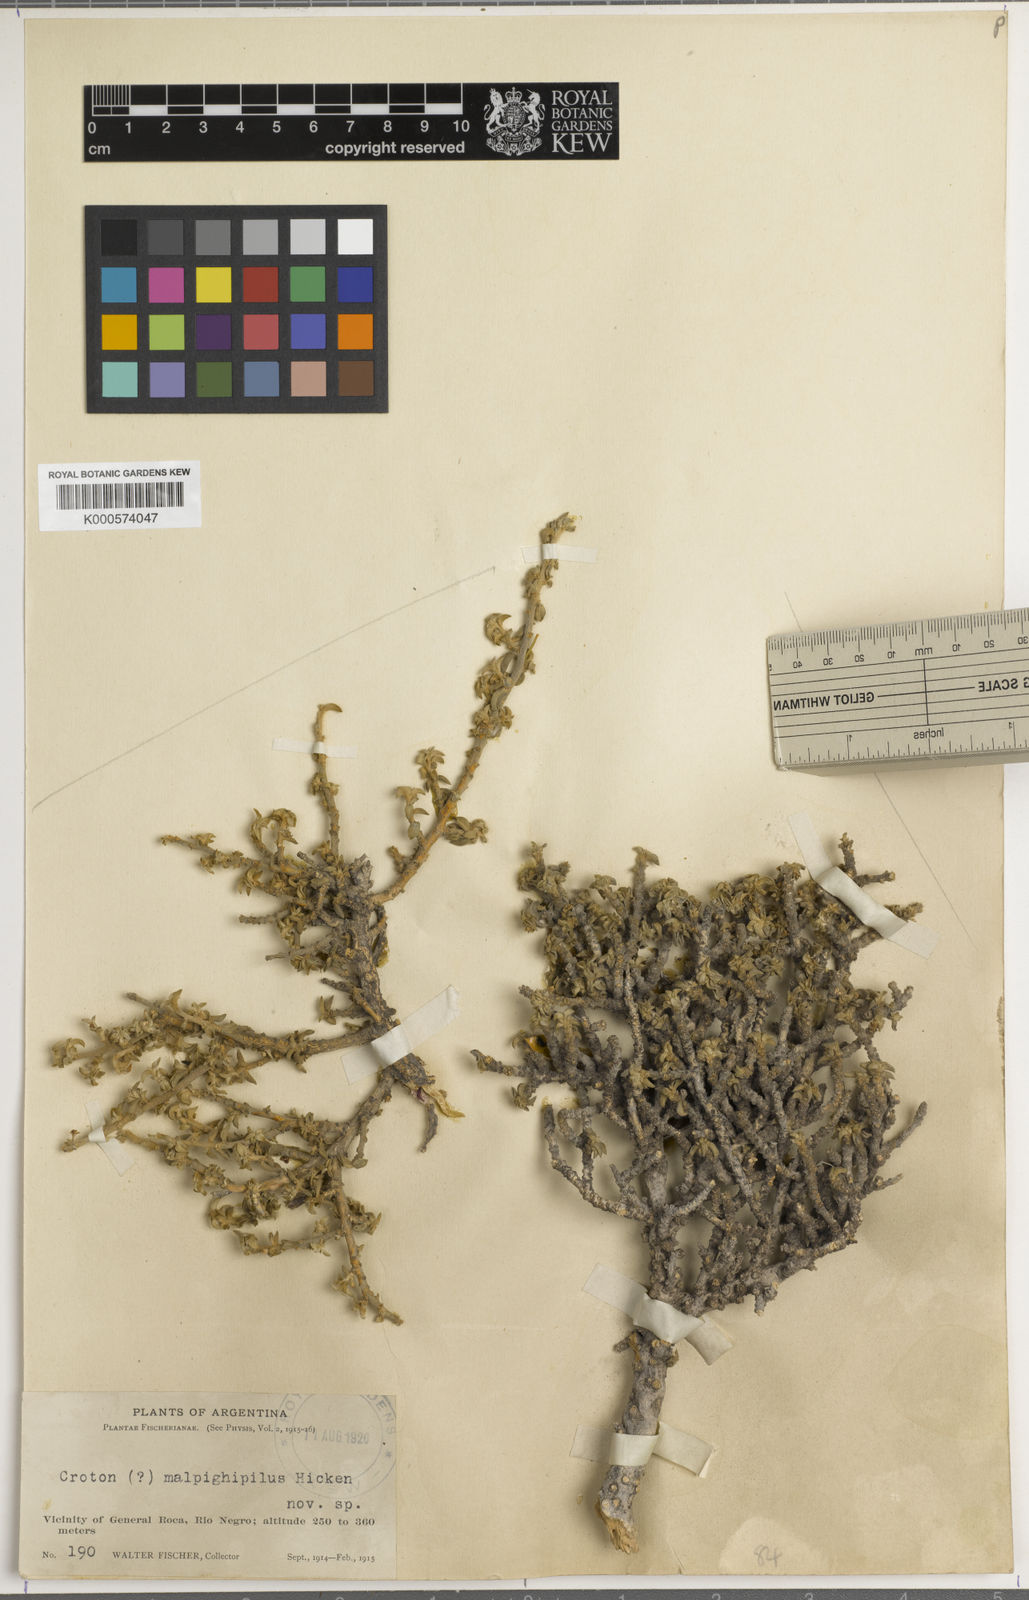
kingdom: Plantae
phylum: Tracheophyta
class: Magnoliopsida
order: Malpighiales
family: Euphorbiaceae
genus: Ditaxis
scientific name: Ditaxis malpighipila
